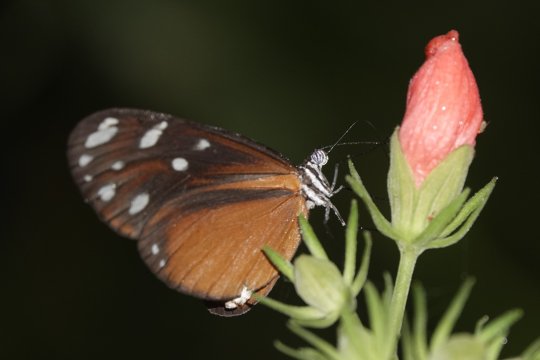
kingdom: Animalia
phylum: Arthropoda
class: Insecta
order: Lepidoptera
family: Nymphalidae
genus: Hyposcada
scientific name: Hyposcada virginiana
